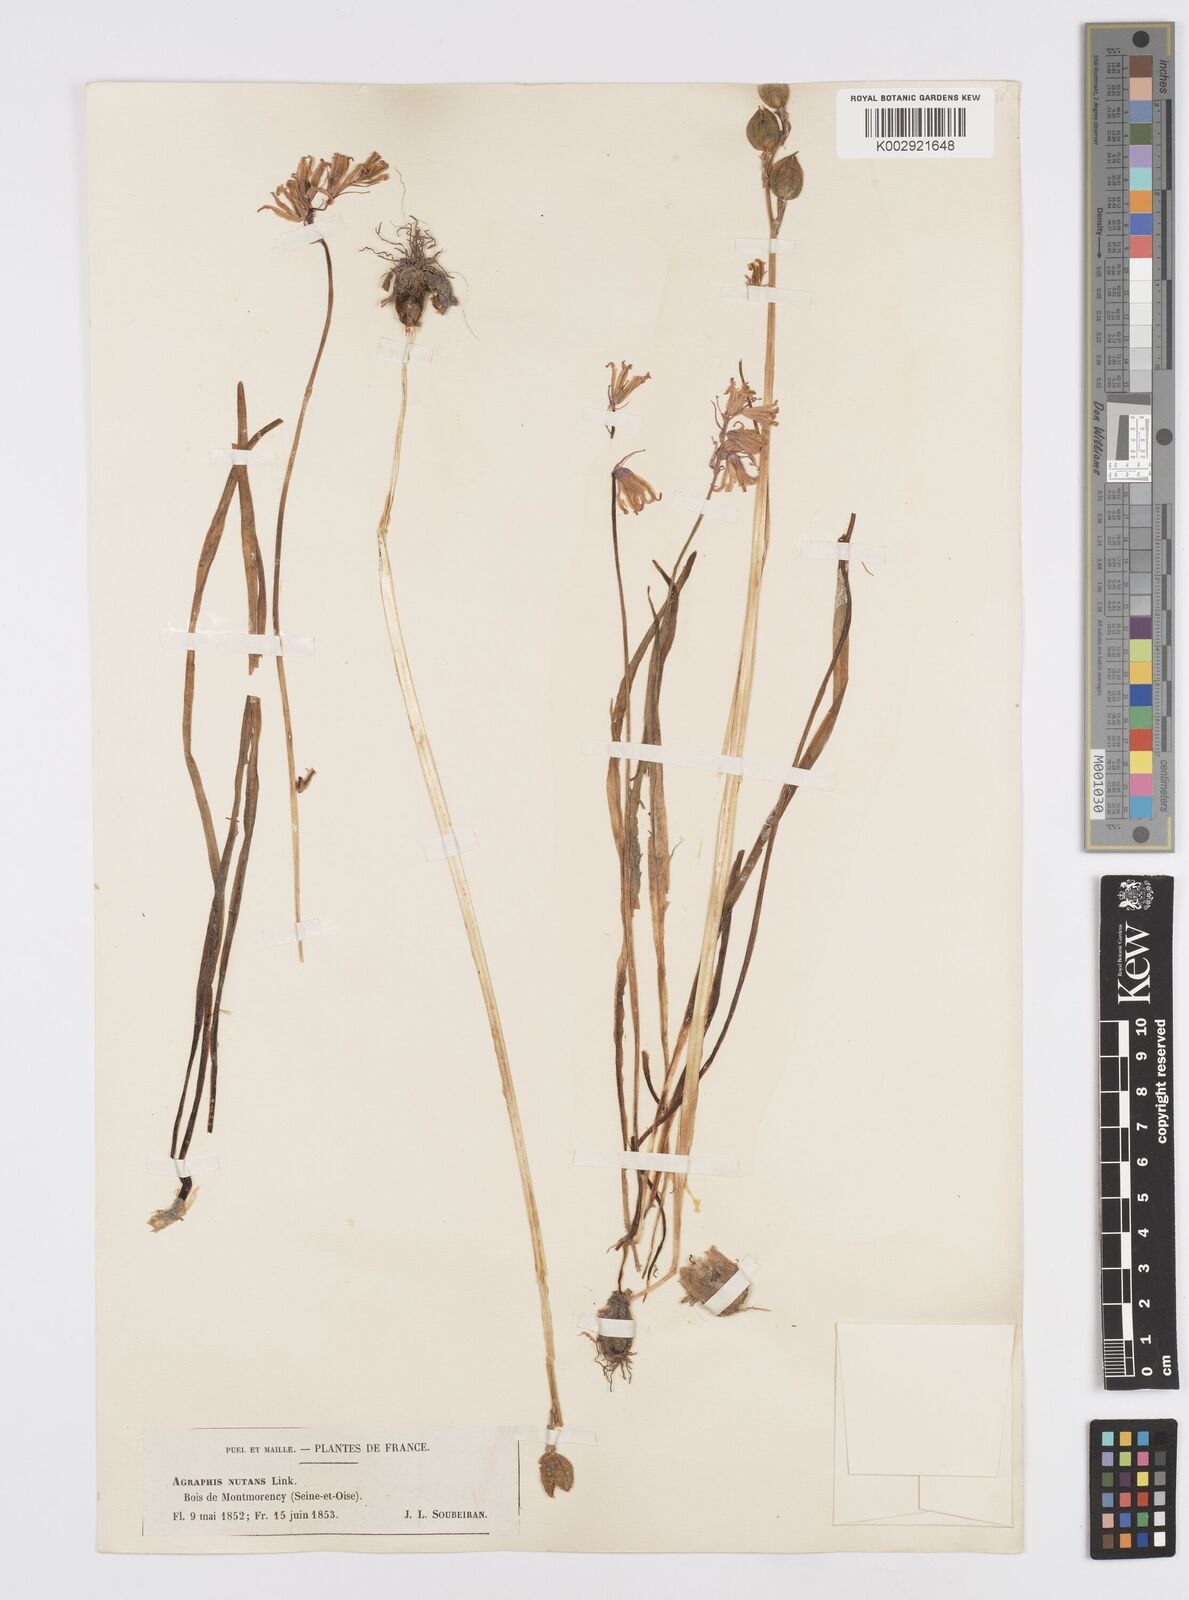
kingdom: Plantae
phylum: Tracheophyta
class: Liliopsida
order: Asparagales
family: Asparagaceae
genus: Hyacinthoides
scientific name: Hyacinthoides non-scripta
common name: Bluebell
